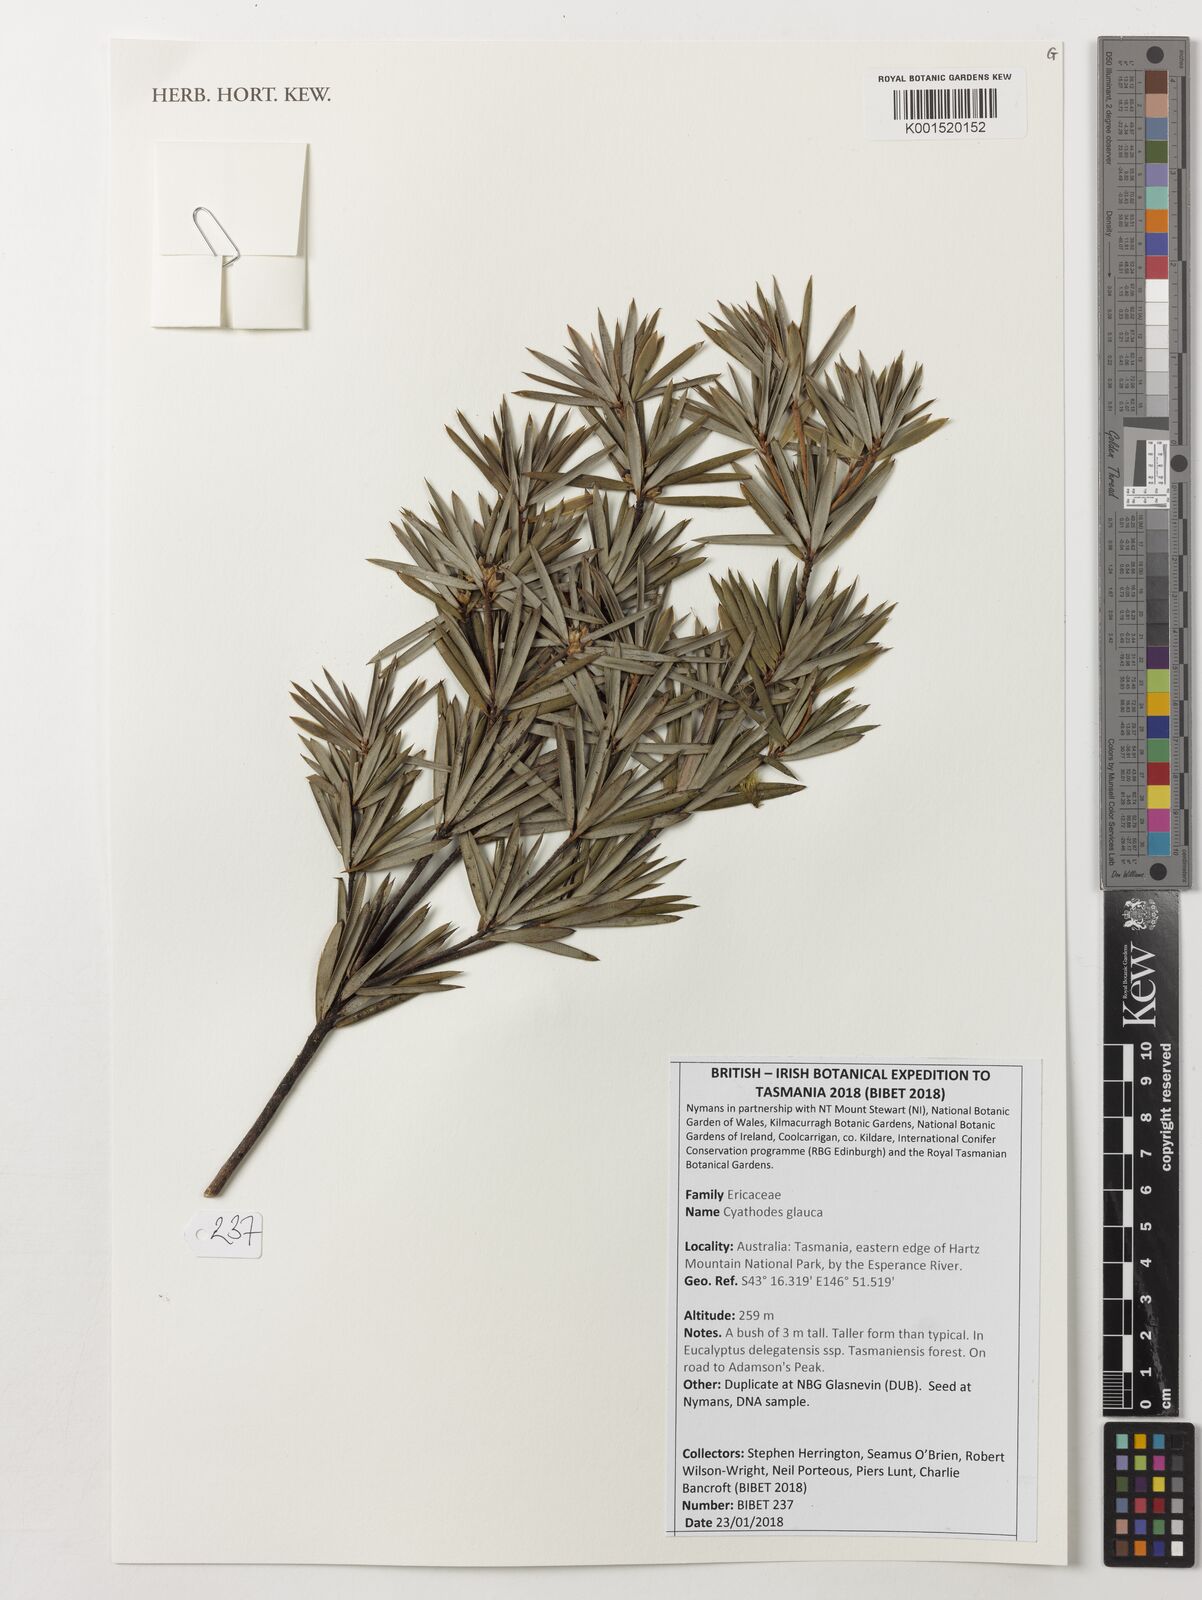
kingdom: Plantae
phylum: Tracheophyta
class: Magnoliopsida
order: Ericales
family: Ericaceae
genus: Cyathodes
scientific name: Cyathodes glauca
